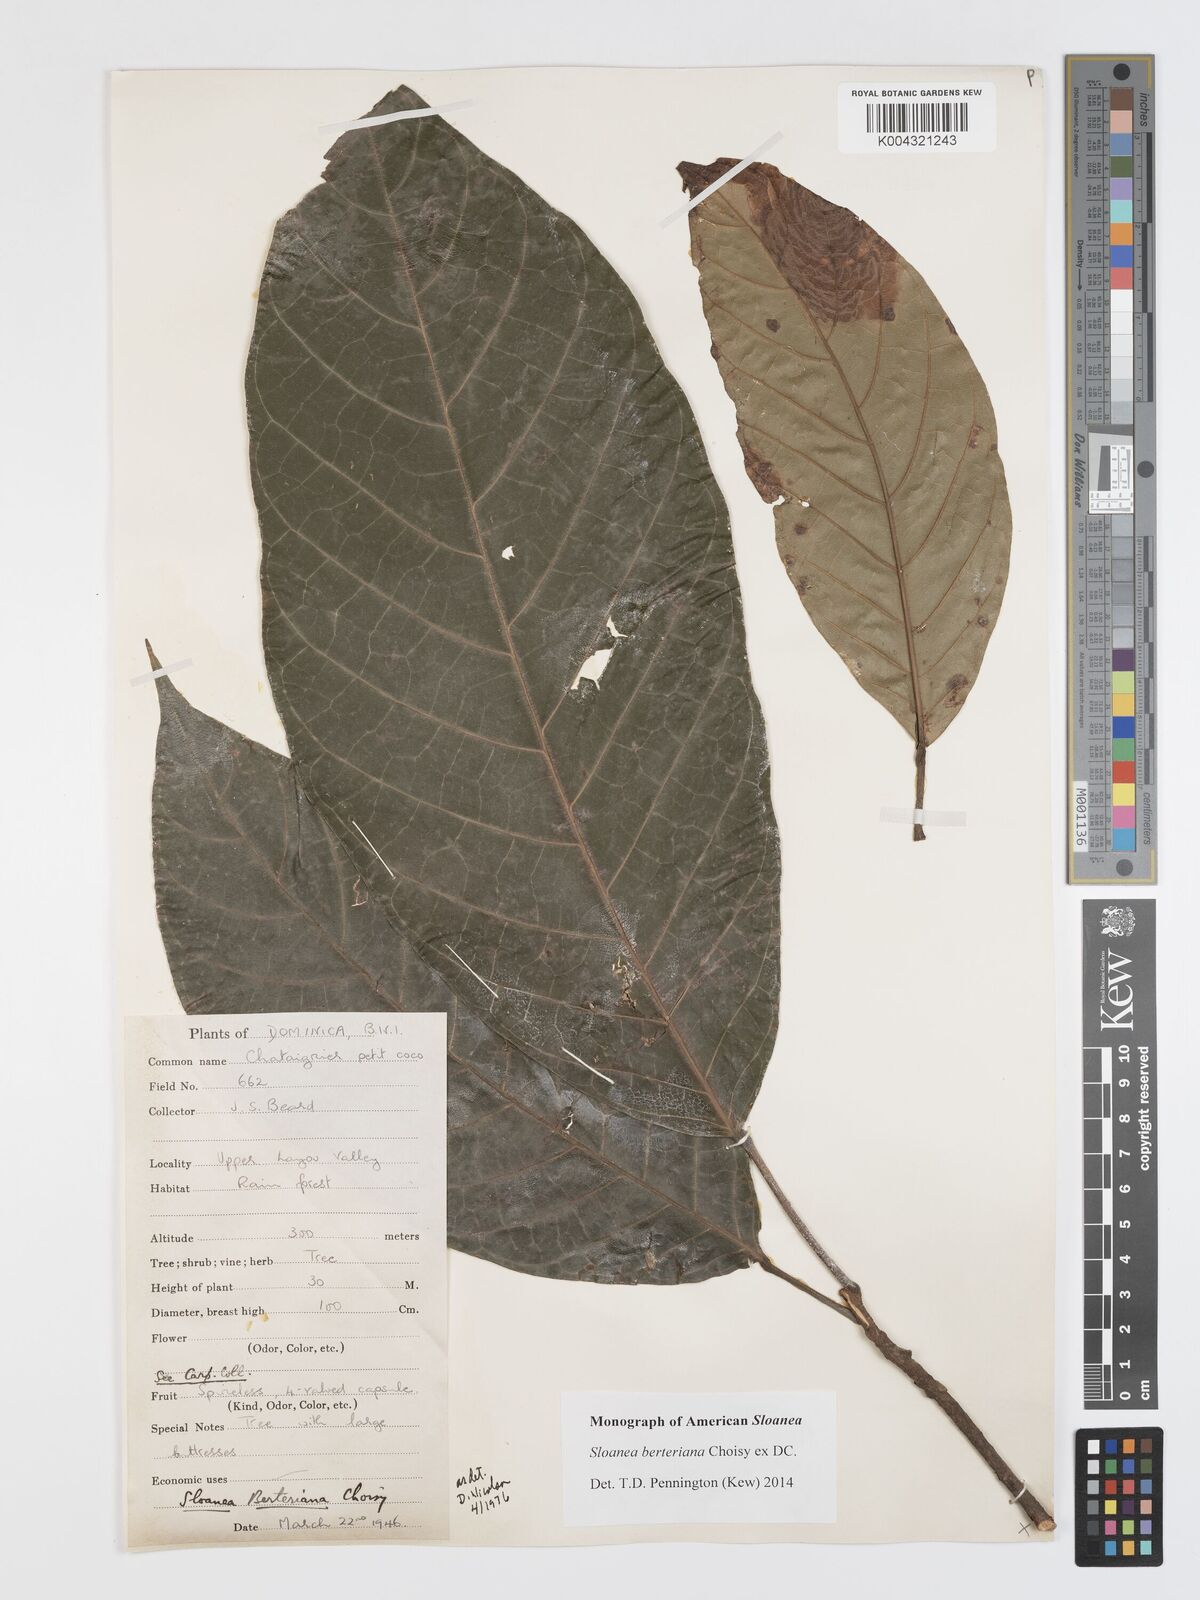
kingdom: Plantae
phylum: Tracheophyta
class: Magnoliopsida
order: Oxalidales
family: Elaeocarpaceae
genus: Sloanea
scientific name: Sloanea berteroana
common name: Bullwood
